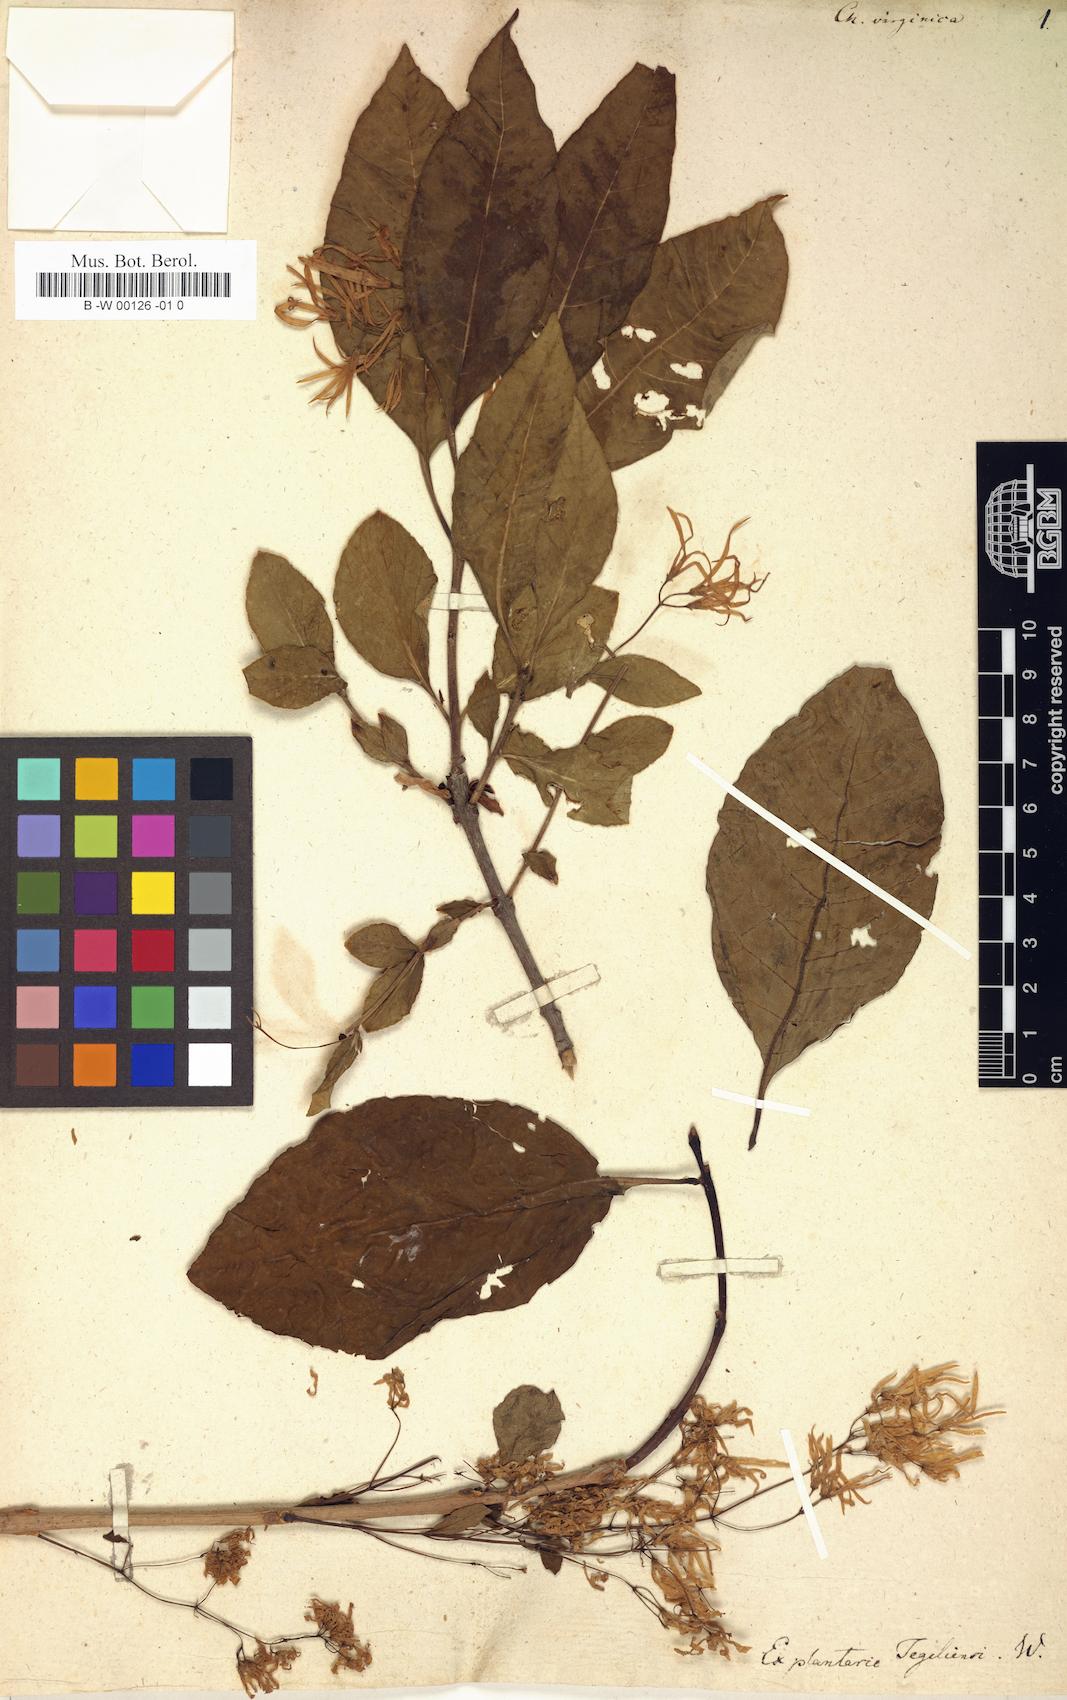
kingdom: Plantae
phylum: Tracheophyta
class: Magnoliopsida
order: Lamiales
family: Oleaceae
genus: Chionanthus
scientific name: Chionanthus virginicus
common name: American fringetree
